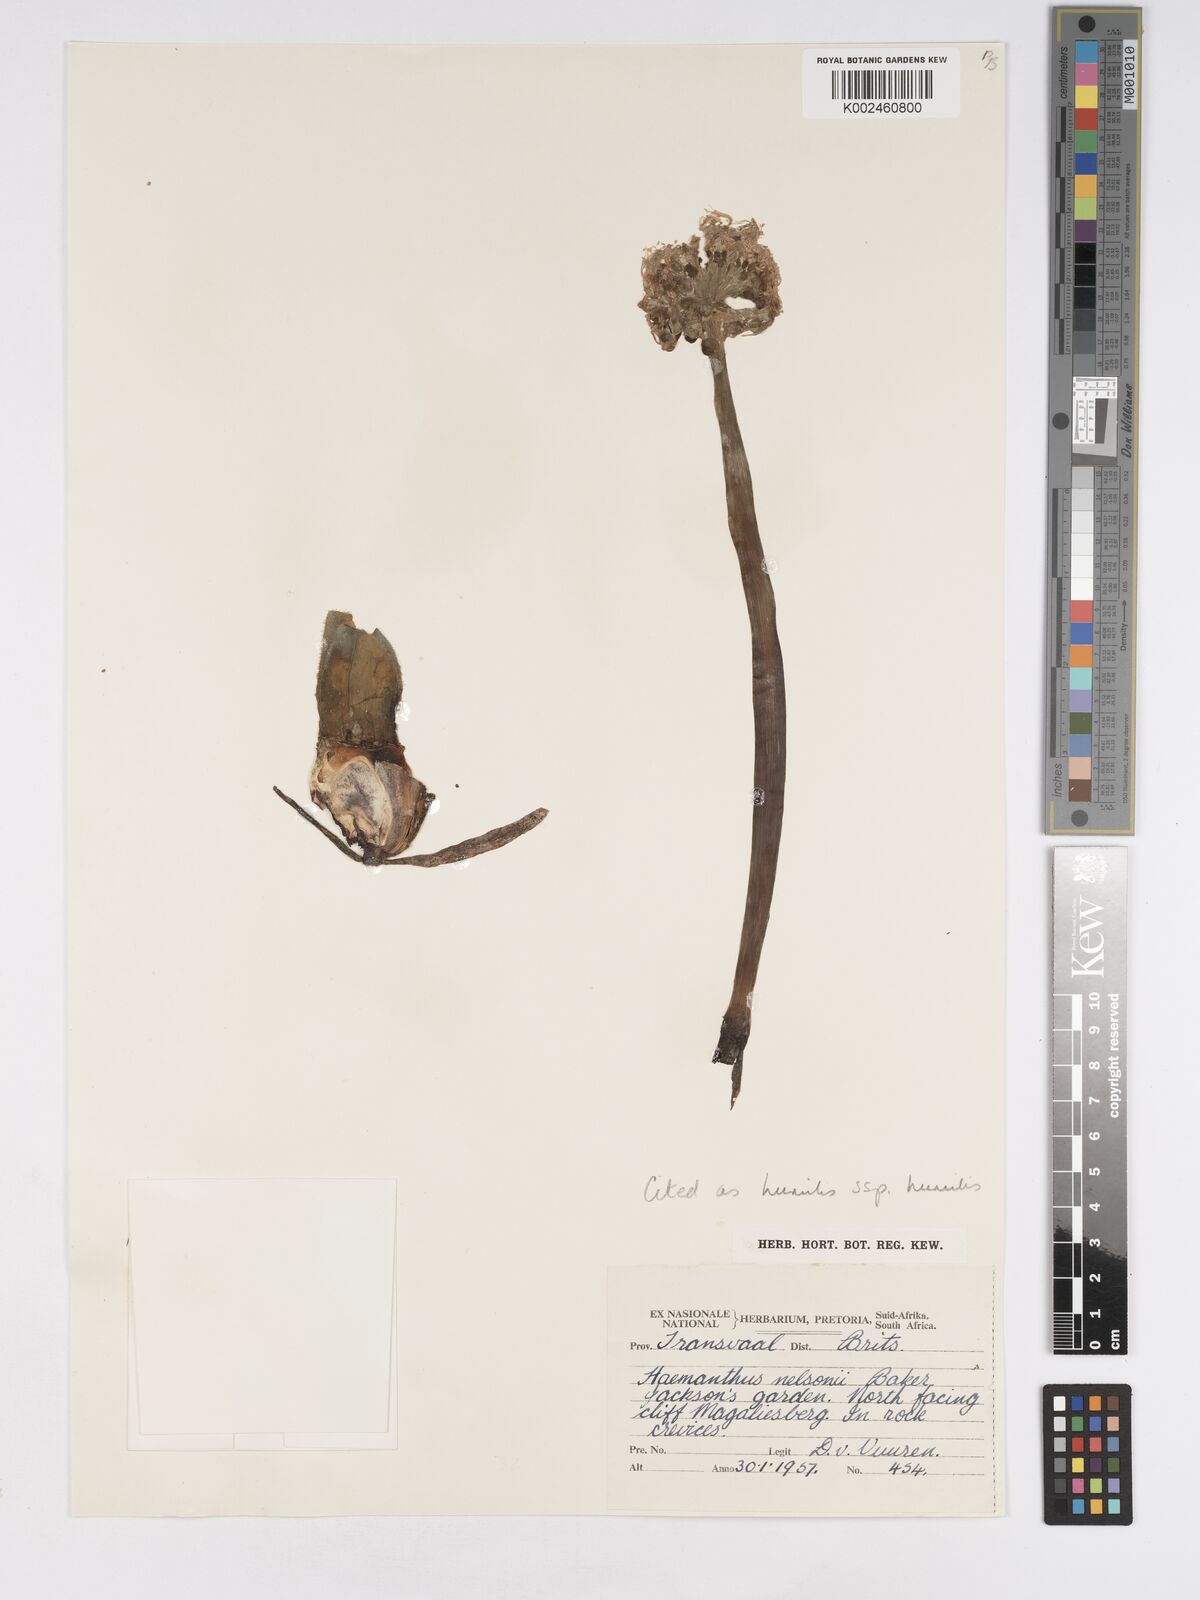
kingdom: Plantae
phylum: Tracheophyta
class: Liliopsida
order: Asparagales
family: Amaryllidaceae
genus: Haemanthus
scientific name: Haemanthus humilis
